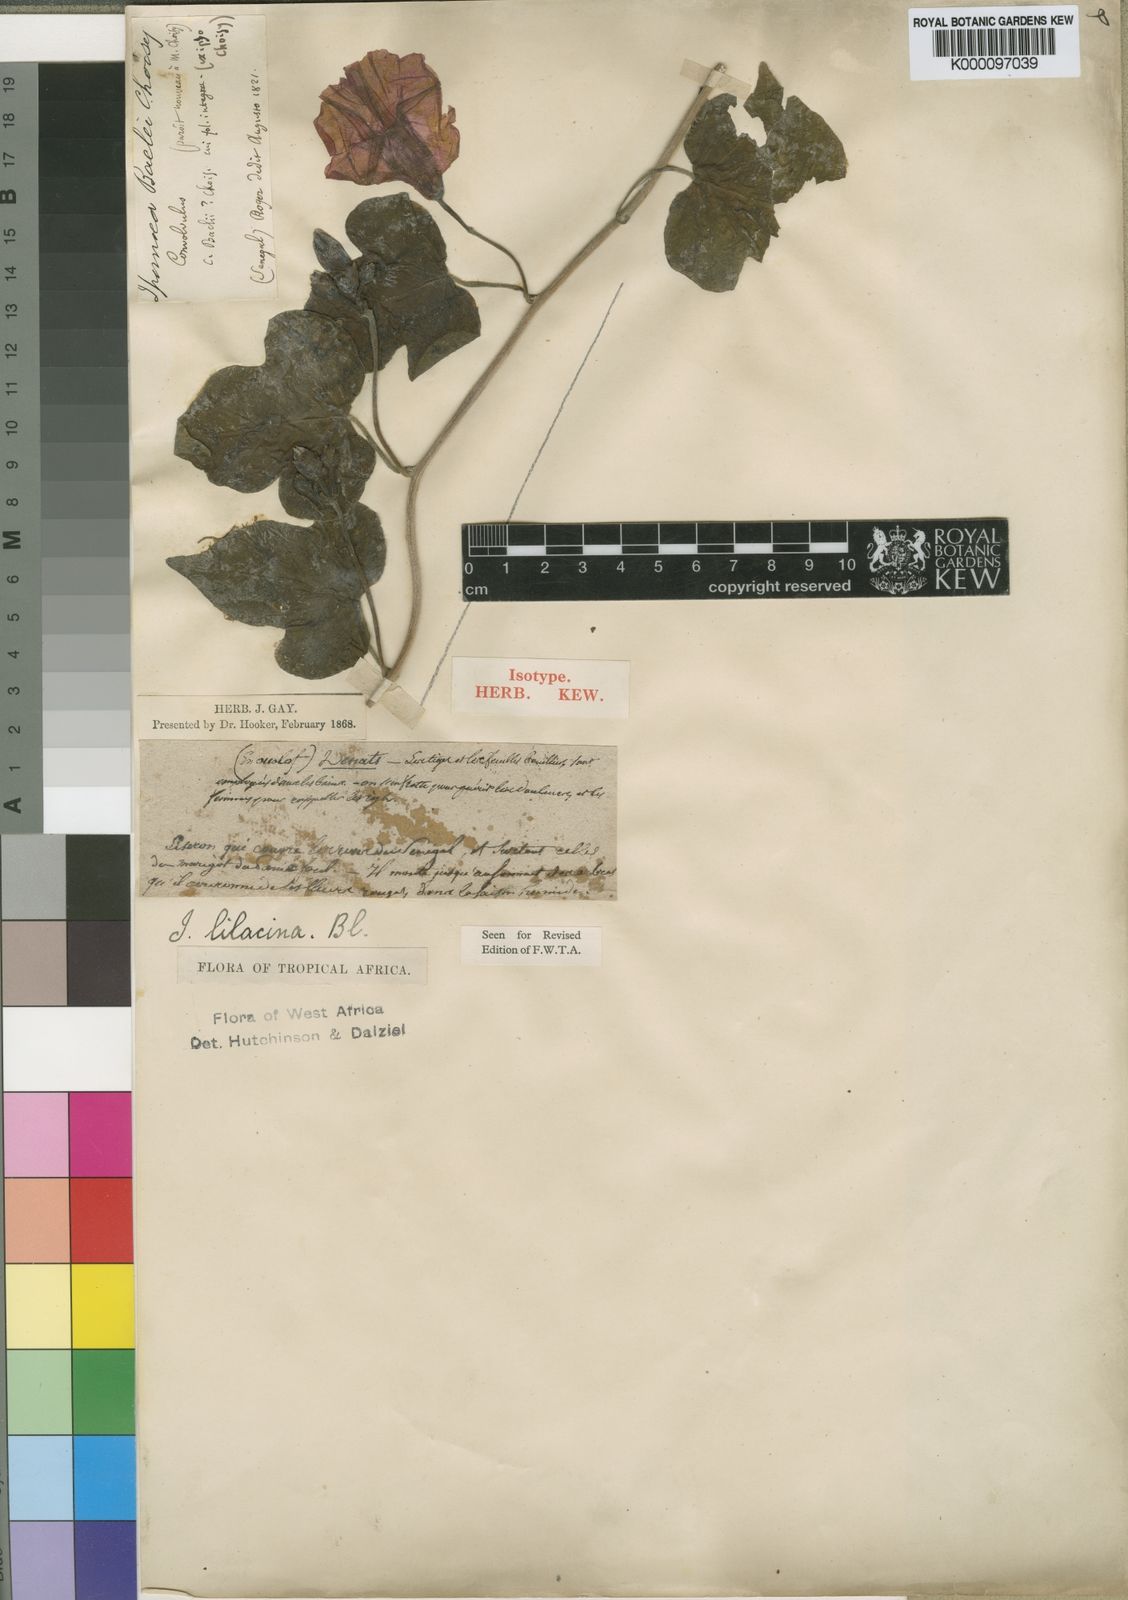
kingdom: Plantae
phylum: Tracheophyta
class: Magnoliopsida
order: Solanales
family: Convolvulaceae
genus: Ipomoea
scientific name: Ipomoea rubens
